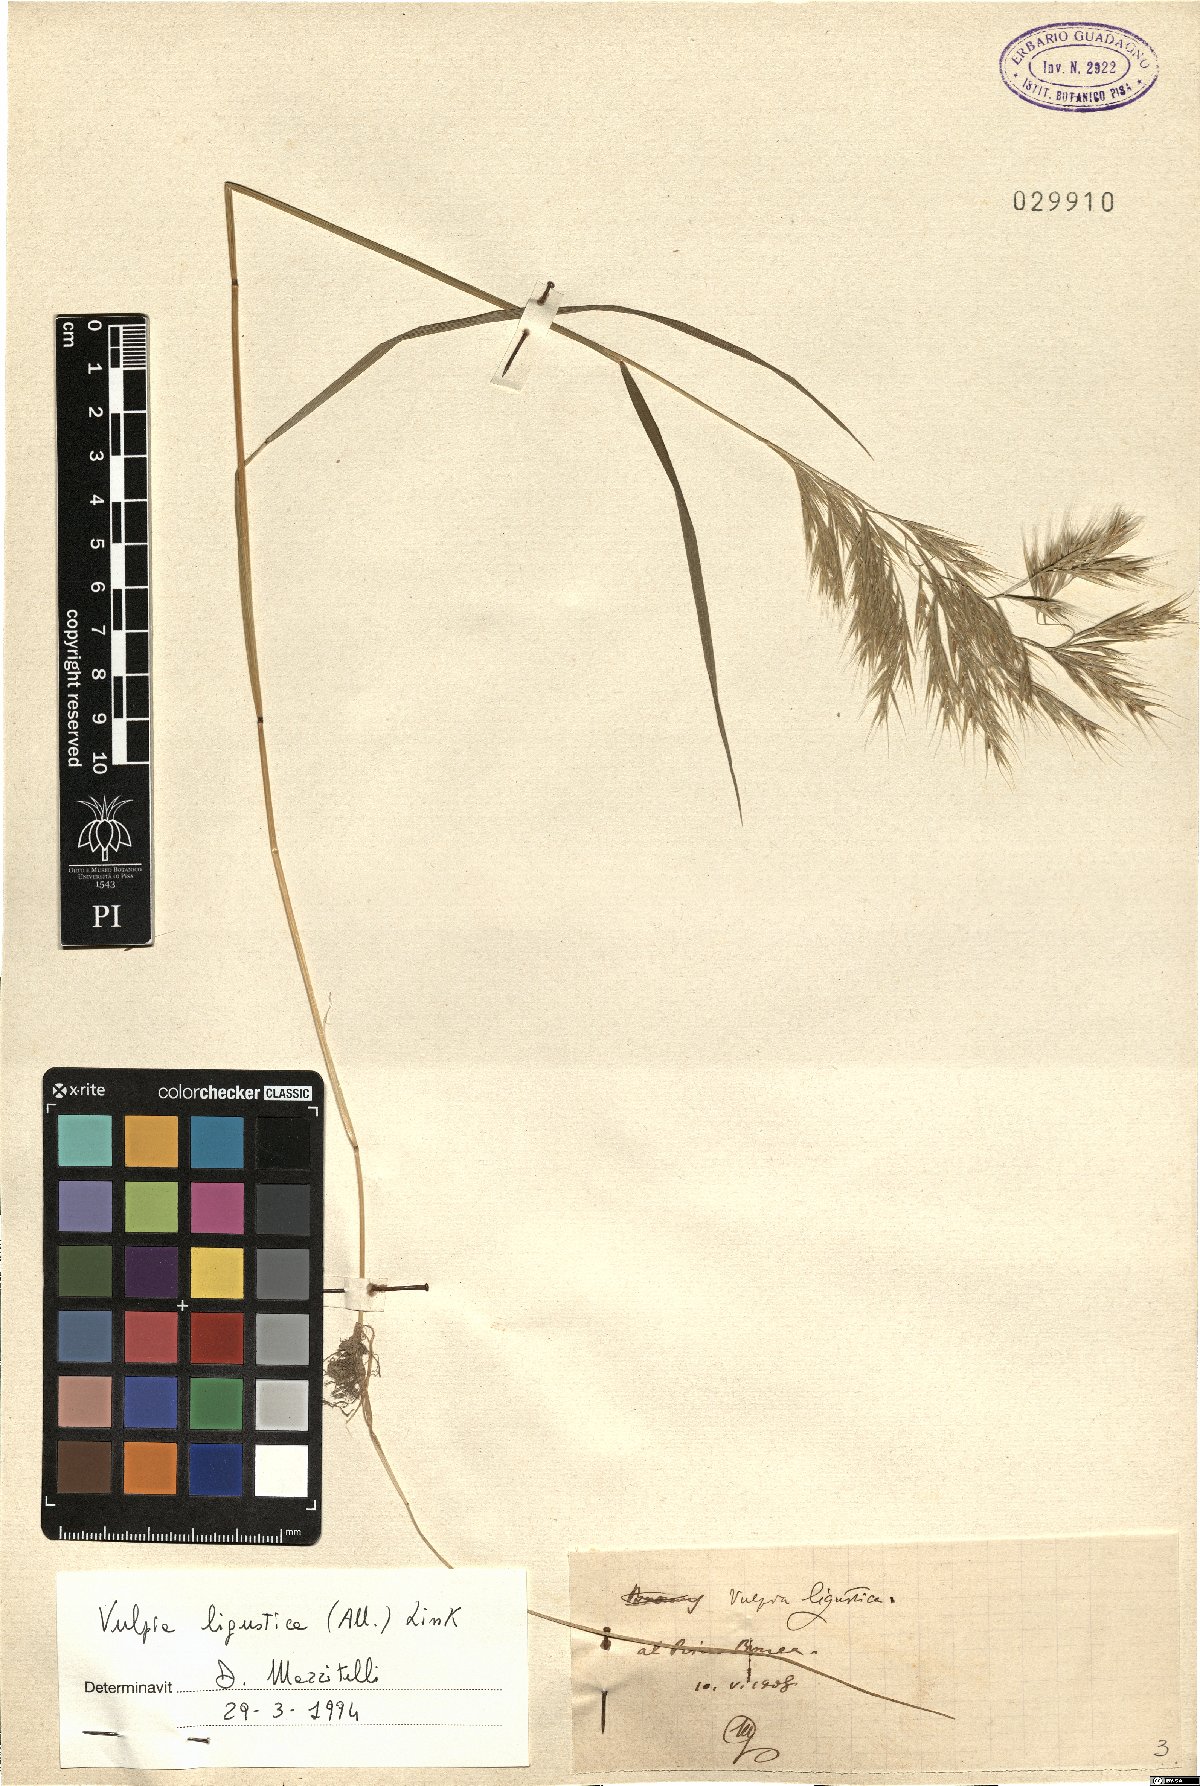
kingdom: Plantae
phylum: Tracheophyta
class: Liliopsida
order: Poales
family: Poaceae
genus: Festuca
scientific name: Festuca ligustica
